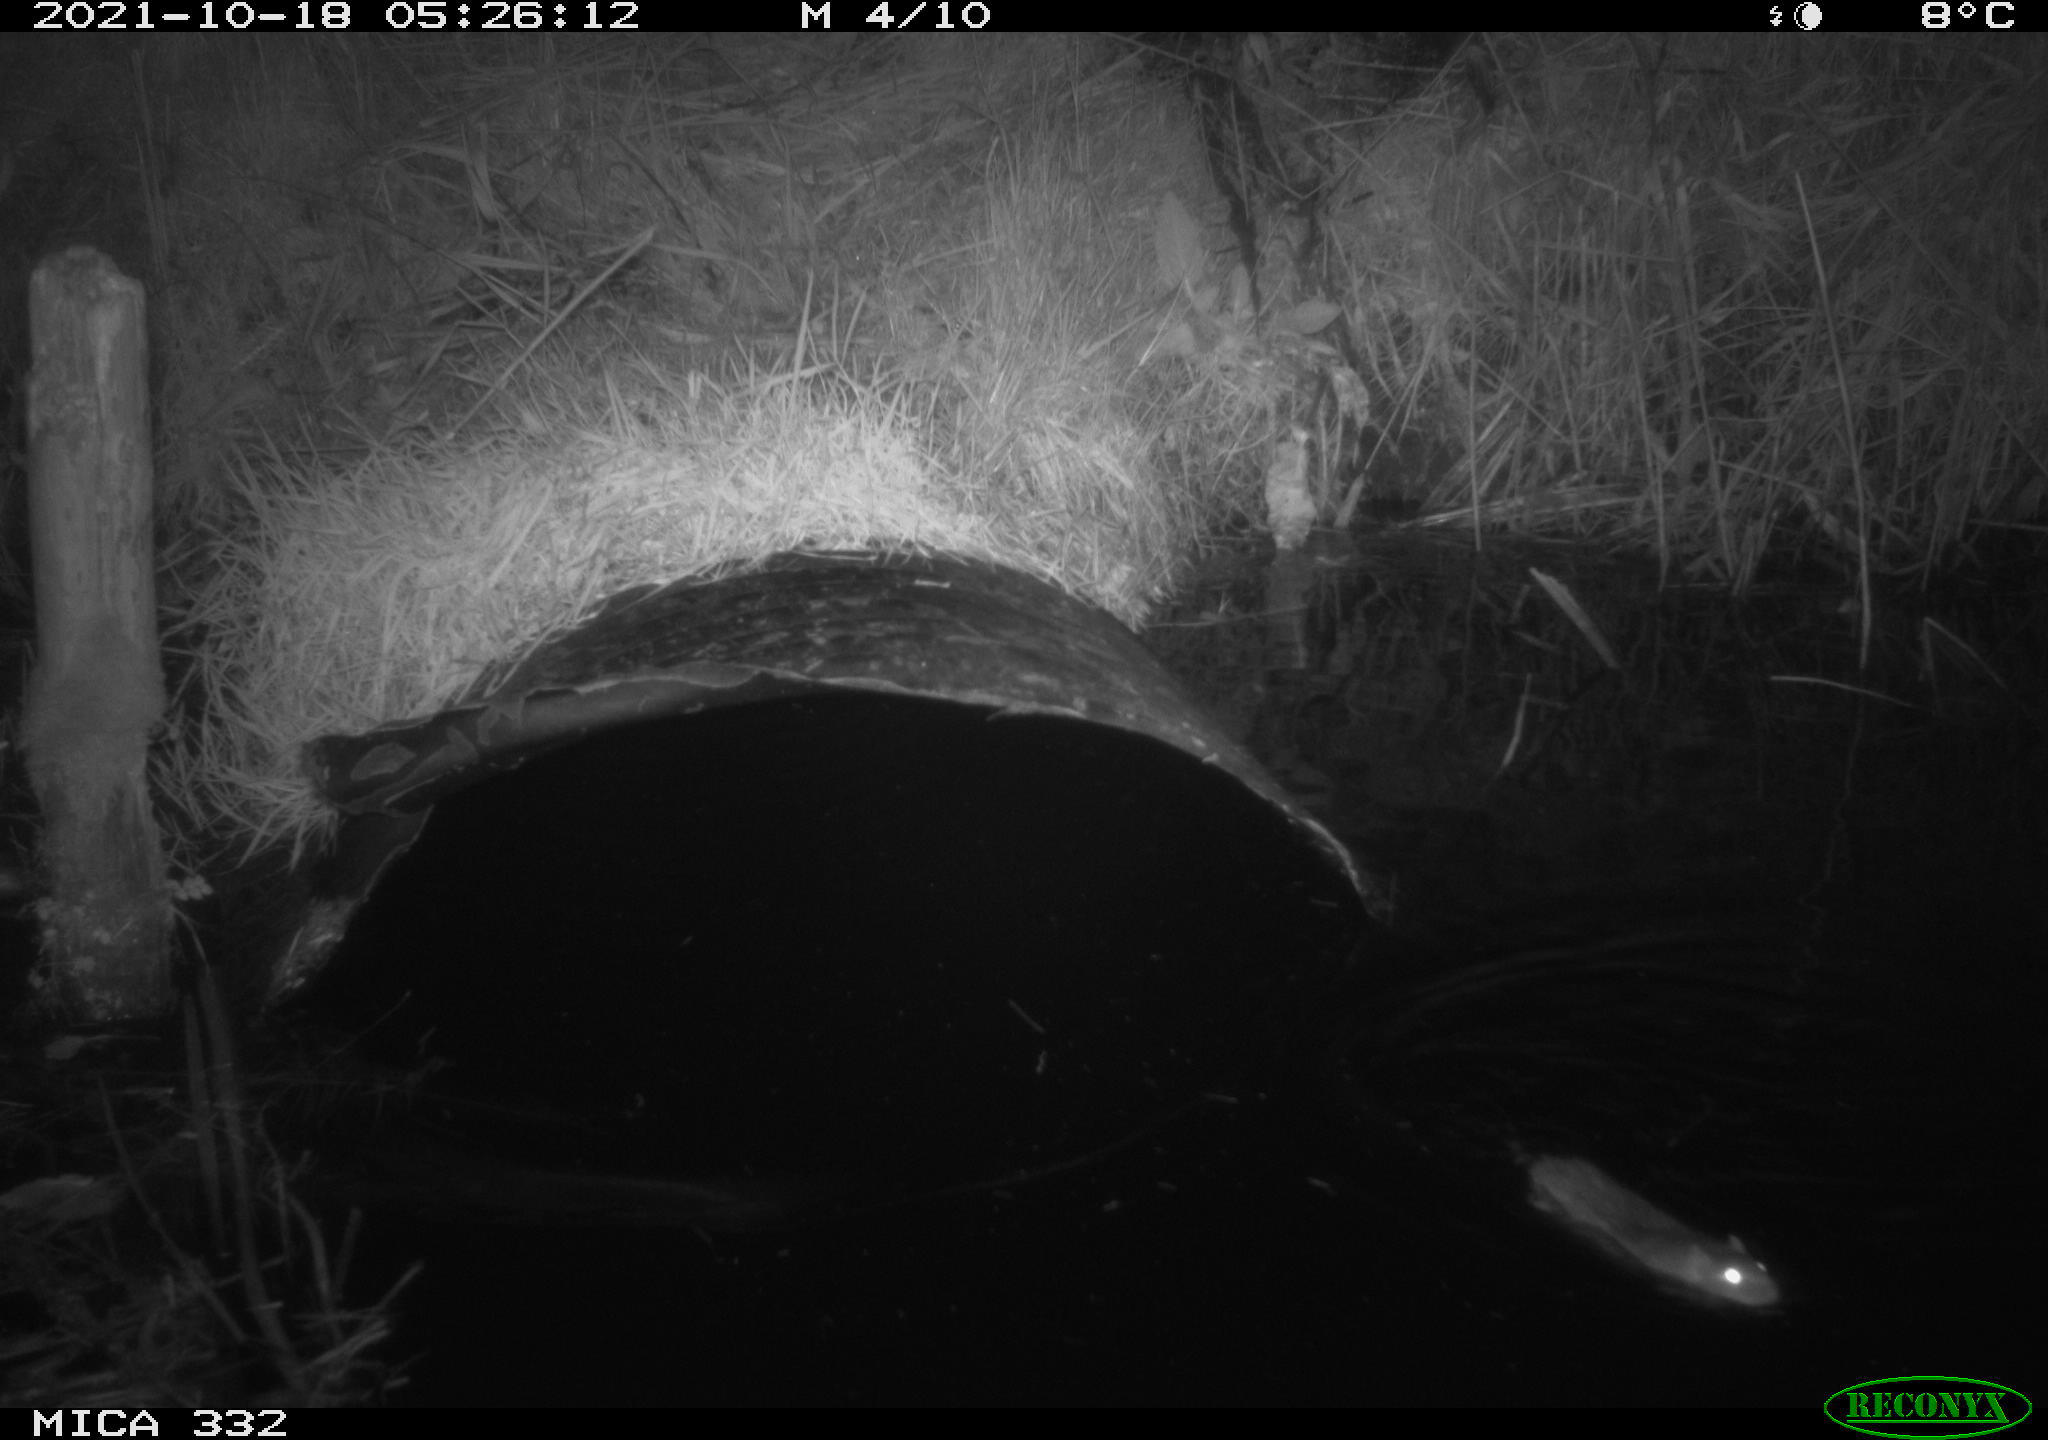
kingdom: Animalia
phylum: Chordata
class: Mammalia
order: Rodentia
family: Muridae
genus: Rattus
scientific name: Rattus norvegicus
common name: Brown rat
